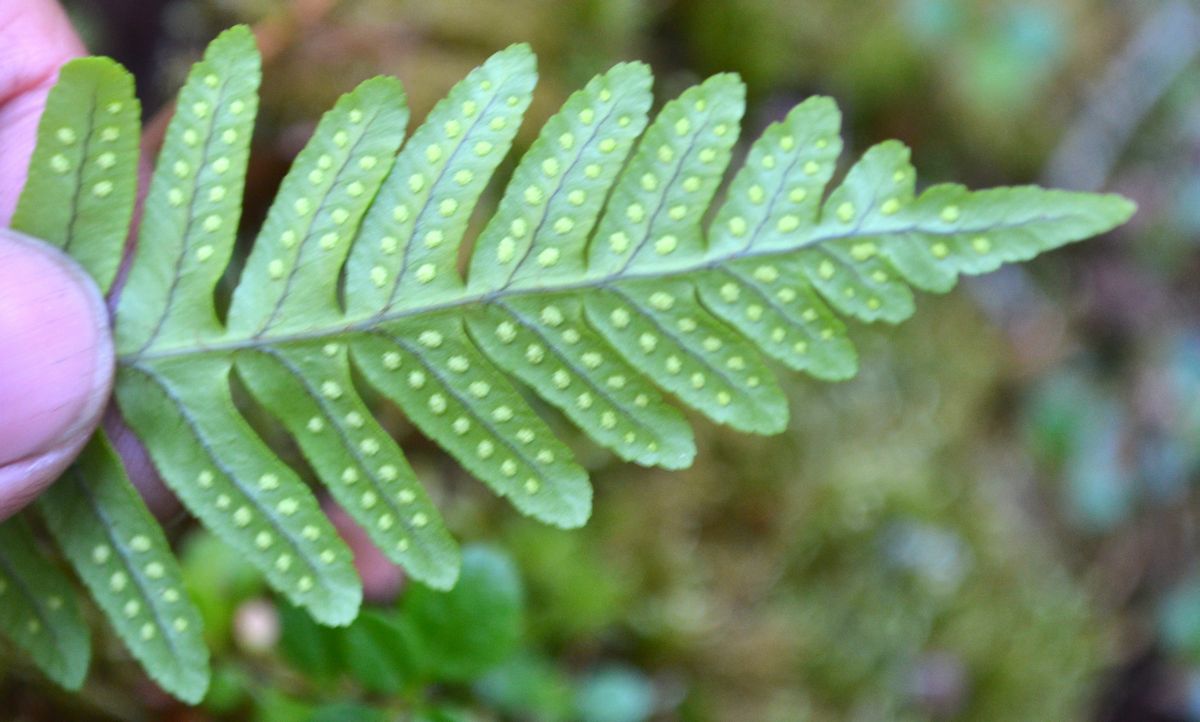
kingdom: Plantae
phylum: Tracheophyta
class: Polypodiopsida
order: Polypodiales
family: Polypodiaceae
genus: Polypodium
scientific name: Polypodium vulgare
